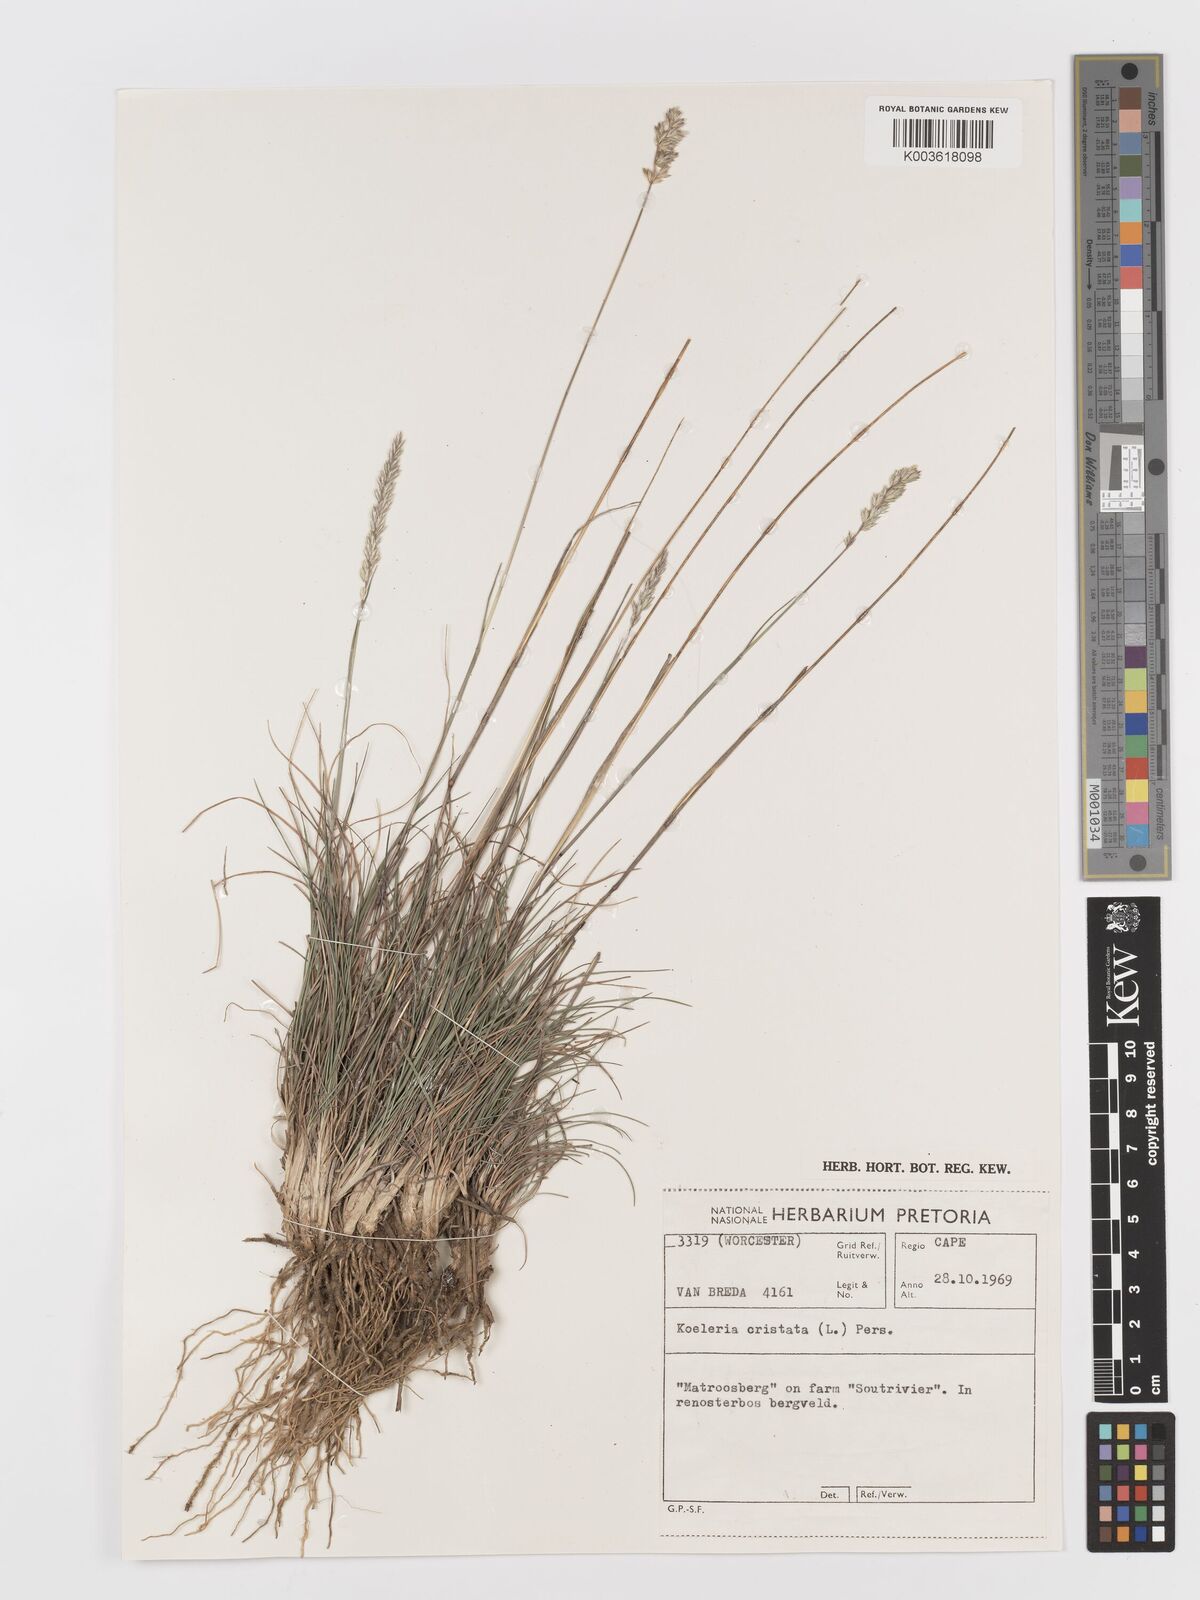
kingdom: Plantae
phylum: Tracheophyta
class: Liliopsida
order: Poales
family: Poaceae
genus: Koeleria
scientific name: Koeleria capensis
